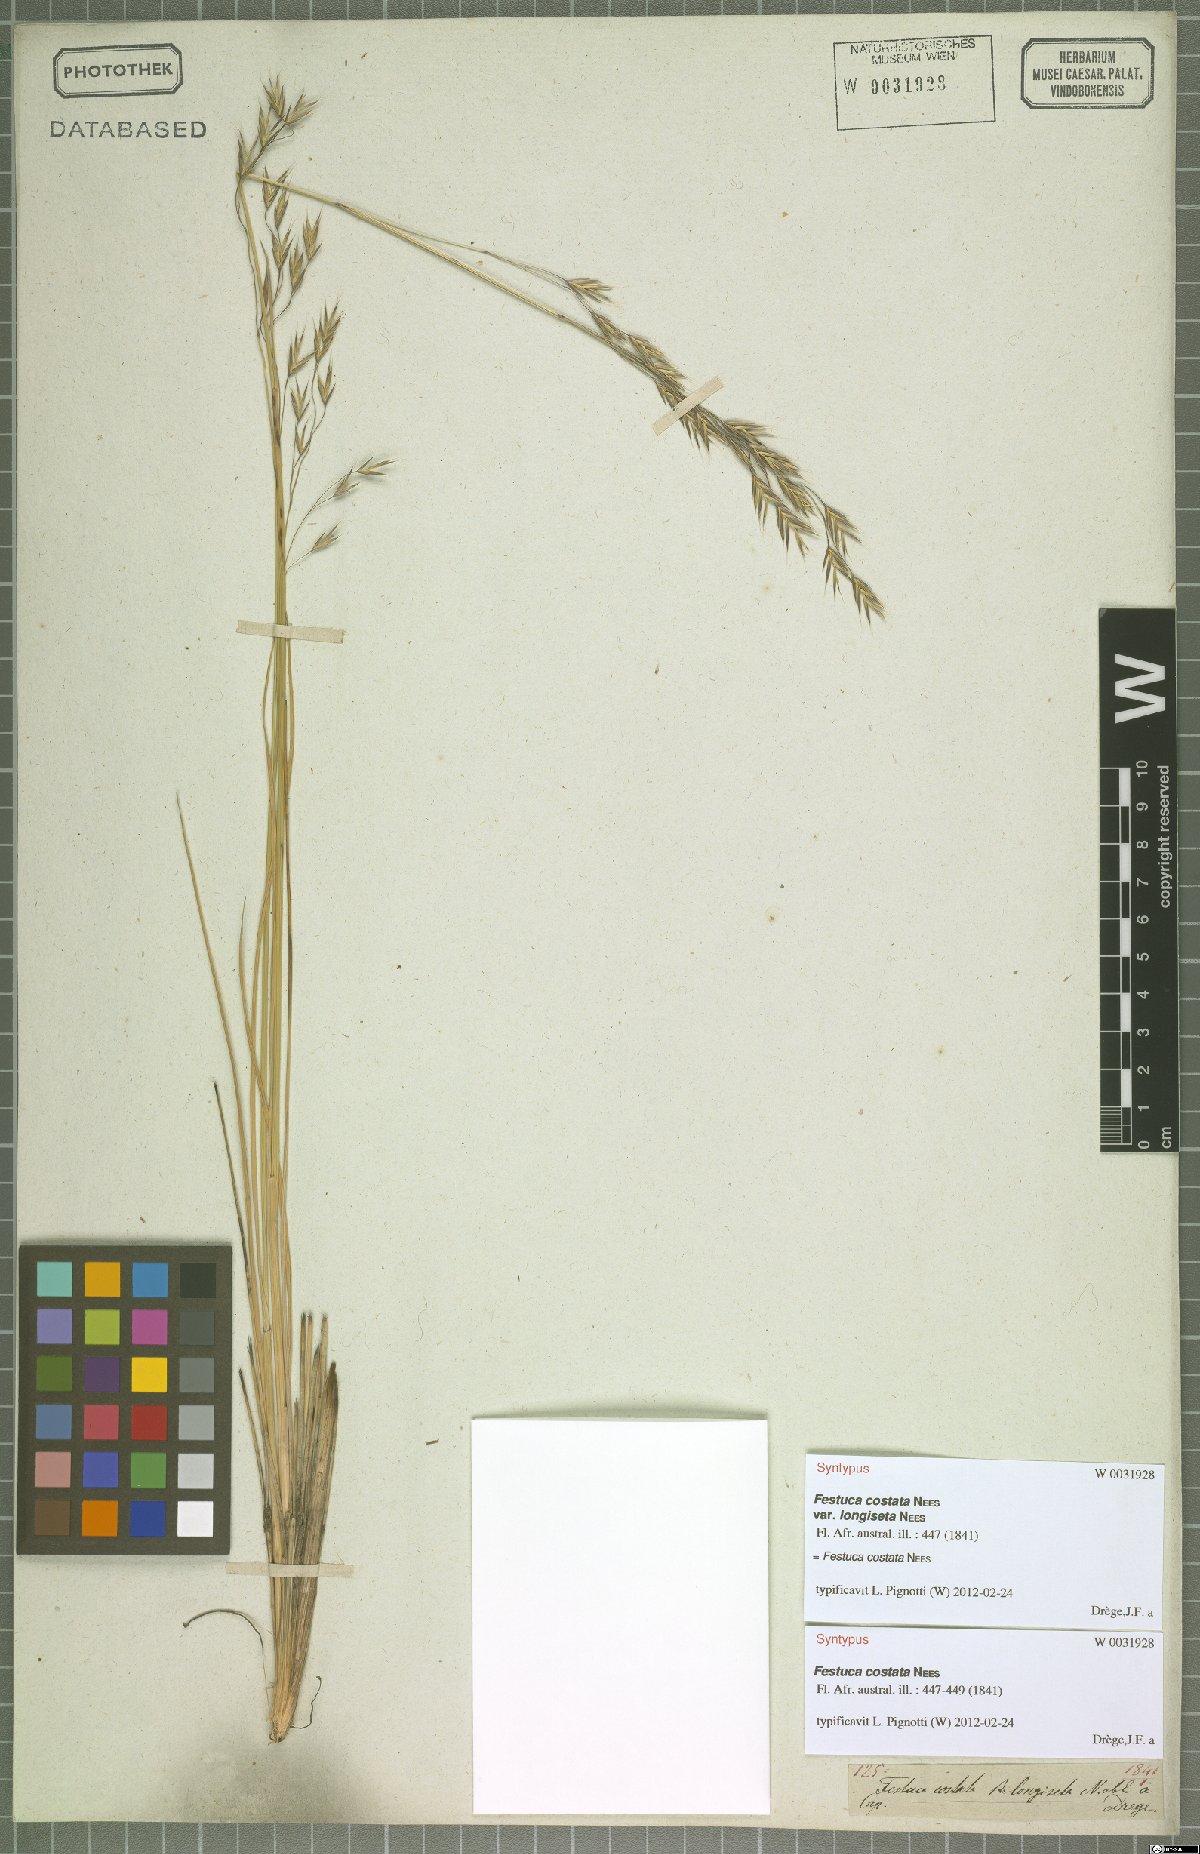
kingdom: Plantae
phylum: Tracheophyta
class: Liliopsida
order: Poales
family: Poaceae
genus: Festuca
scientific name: Festuca costata
